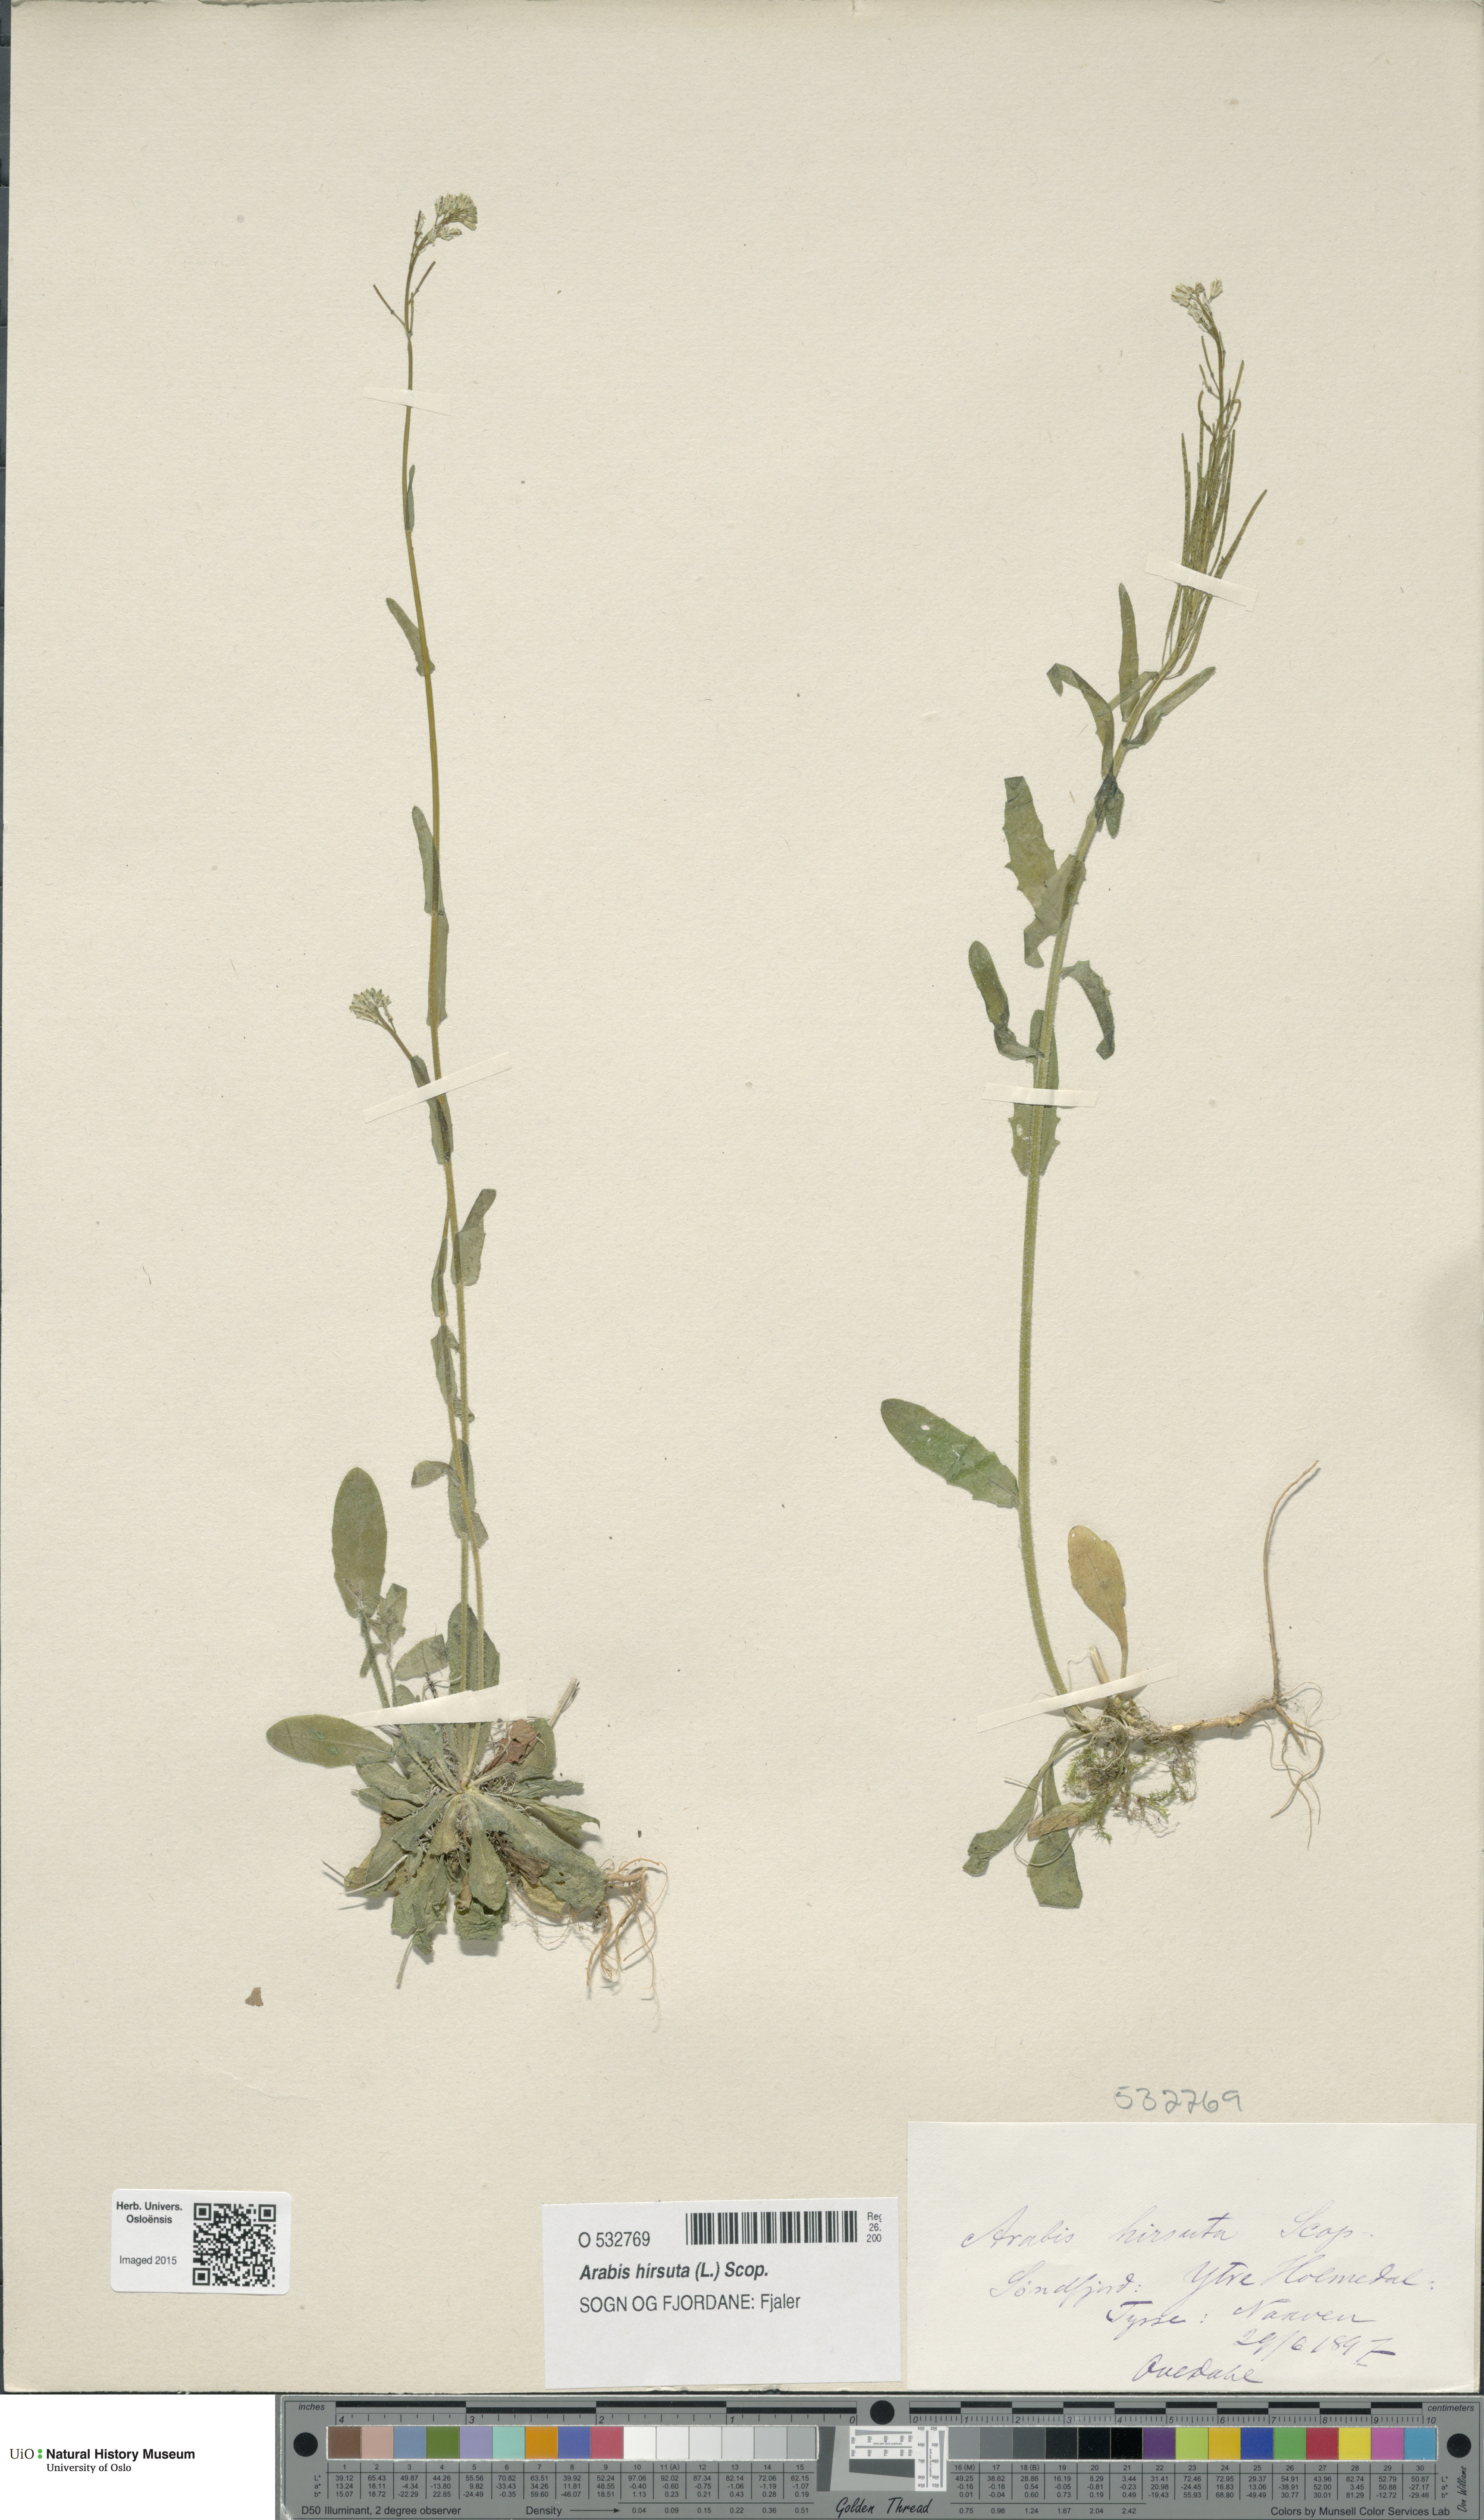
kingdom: Plantae
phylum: Tracheophyta
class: Magnoliopsida
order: Brassicales
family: Brassicaceae
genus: Arabis
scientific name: Arabis hirsuta
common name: Hairy rock-cress
